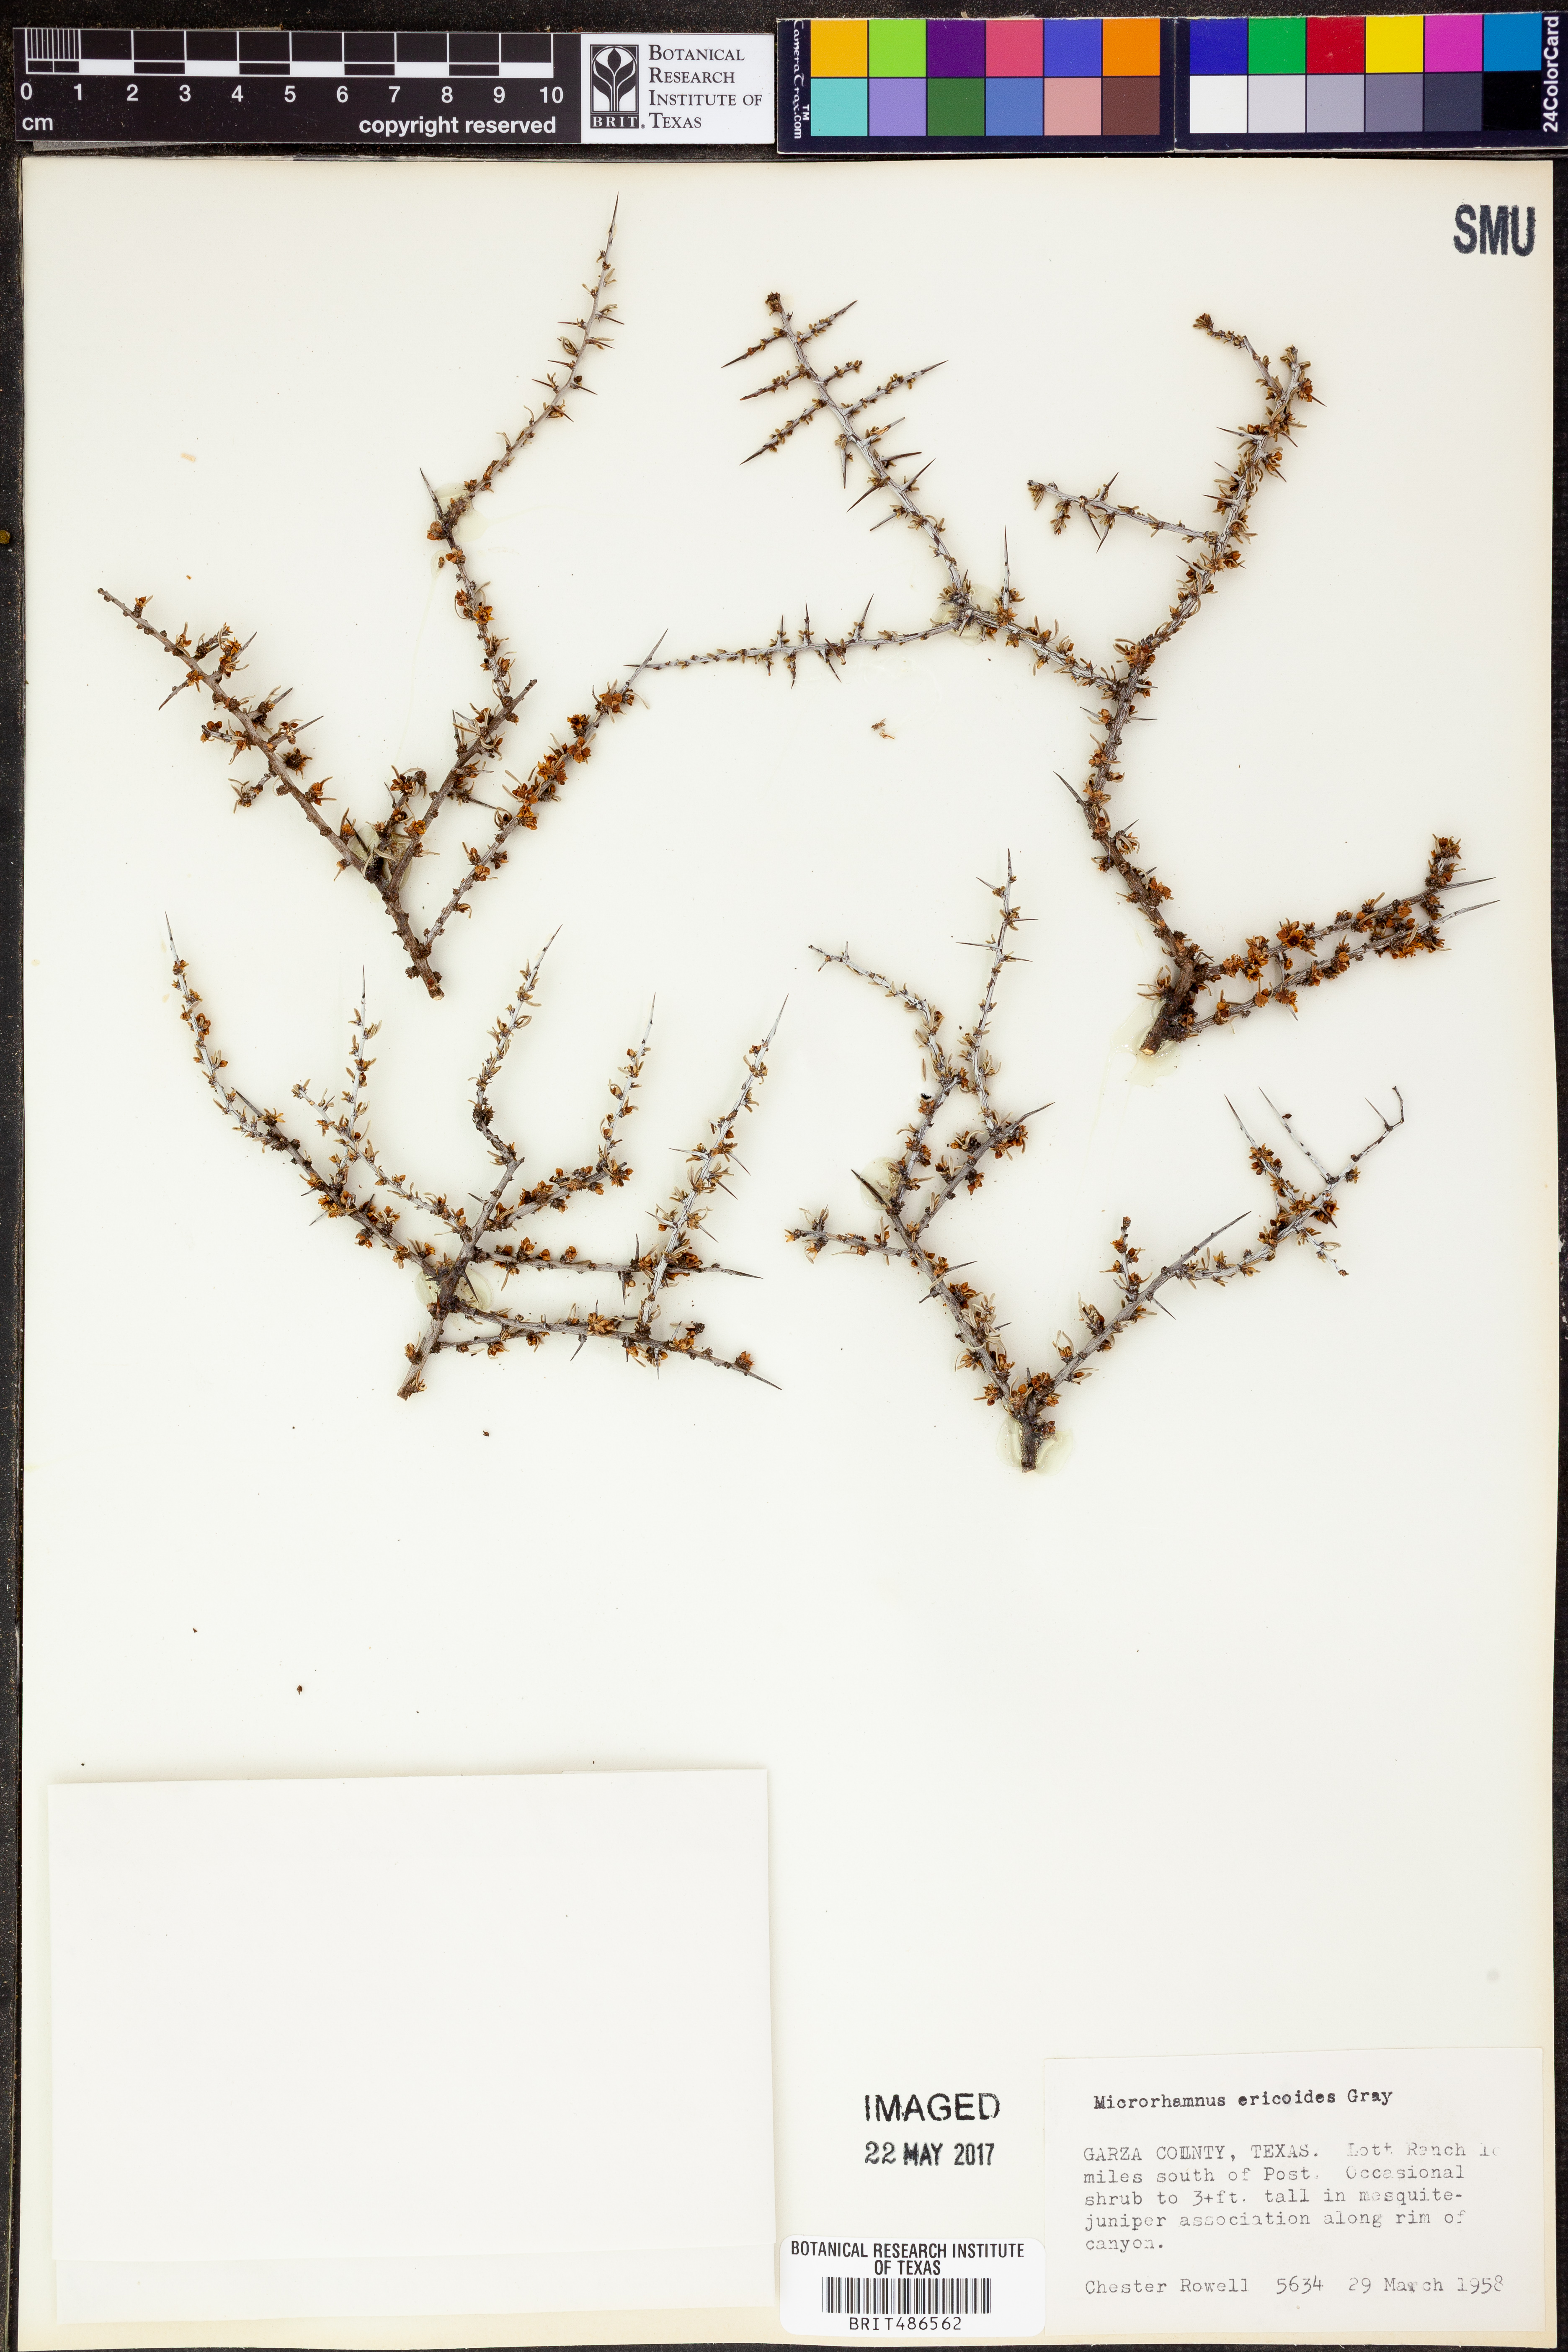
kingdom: Plantae
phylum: Tracheophyta
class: Magnoliopsida
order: Rosales
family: Rhamnaceae
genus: Condalia
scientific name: Condalia ericoides
